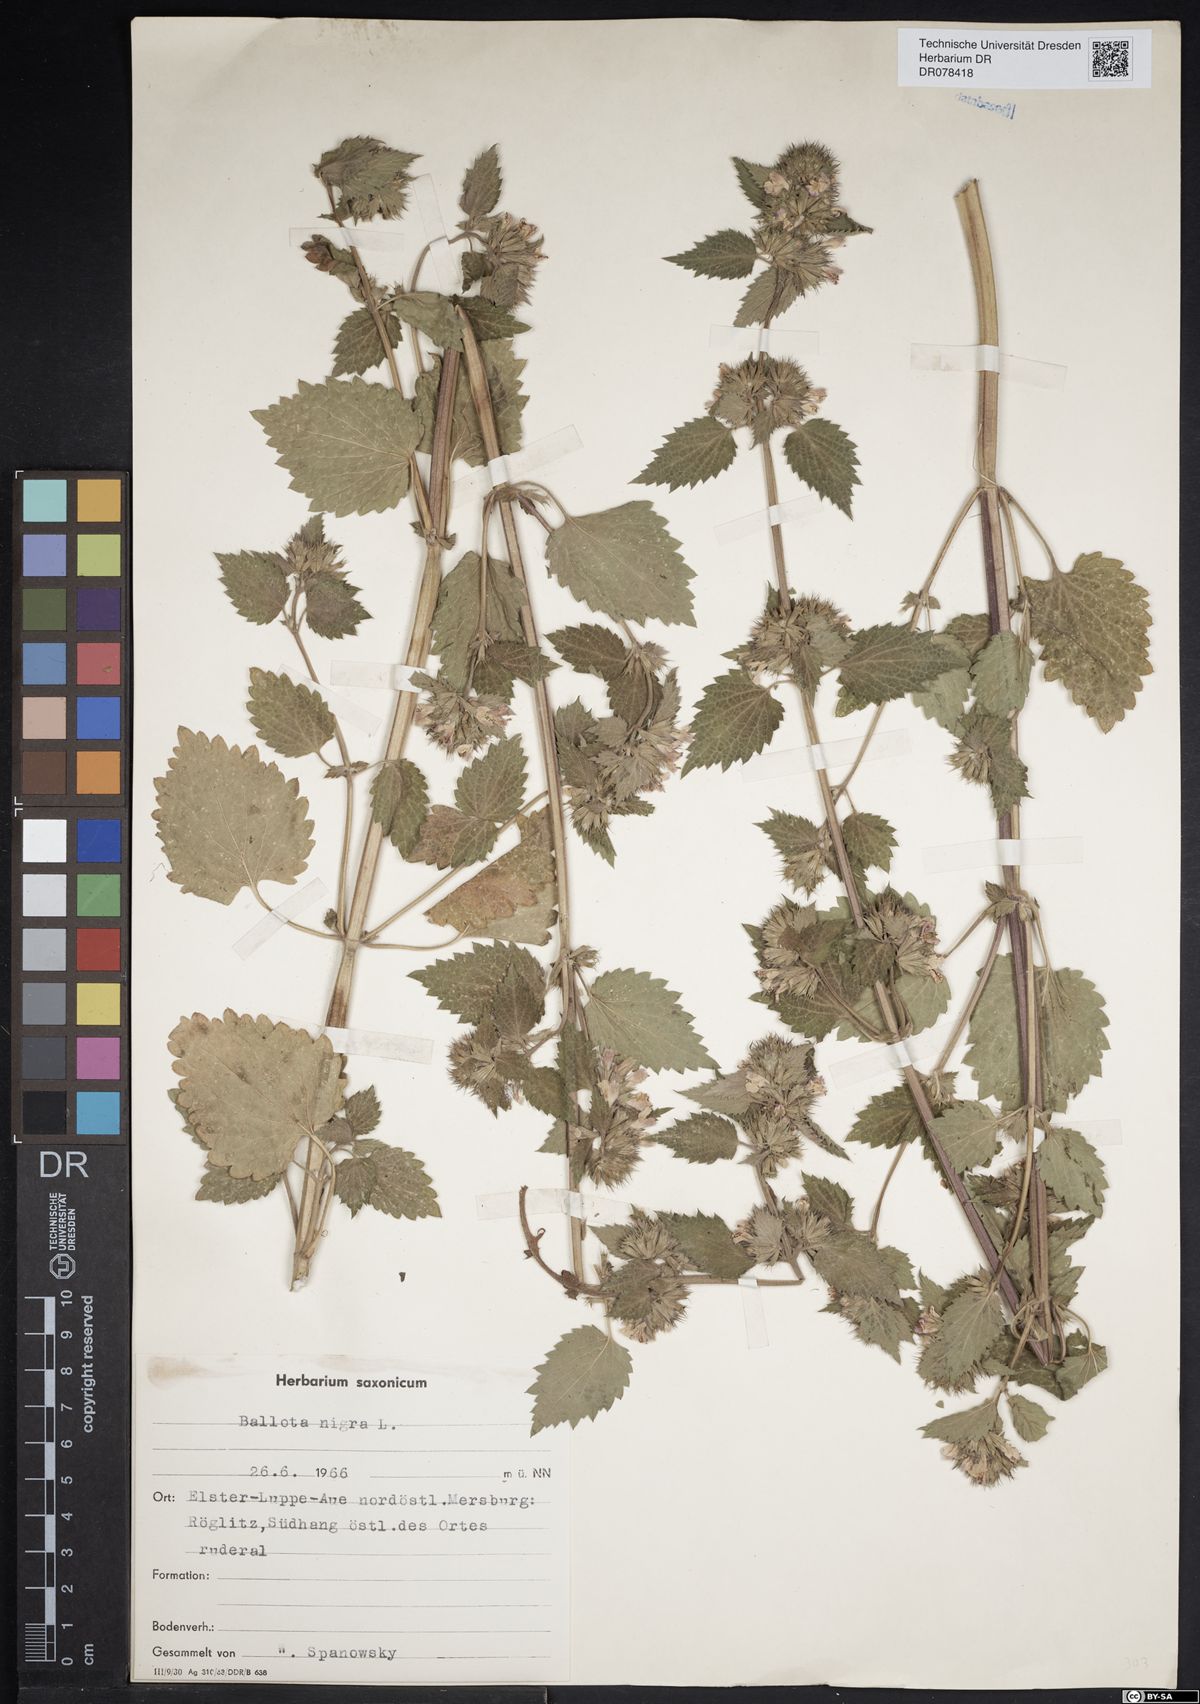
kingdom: Plantae
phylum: Tracheophyta
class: Magnoliopsida
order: Lamiales
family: Lamiaceae
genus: Ballota
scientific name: Ballota nigra
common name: Black horehound
